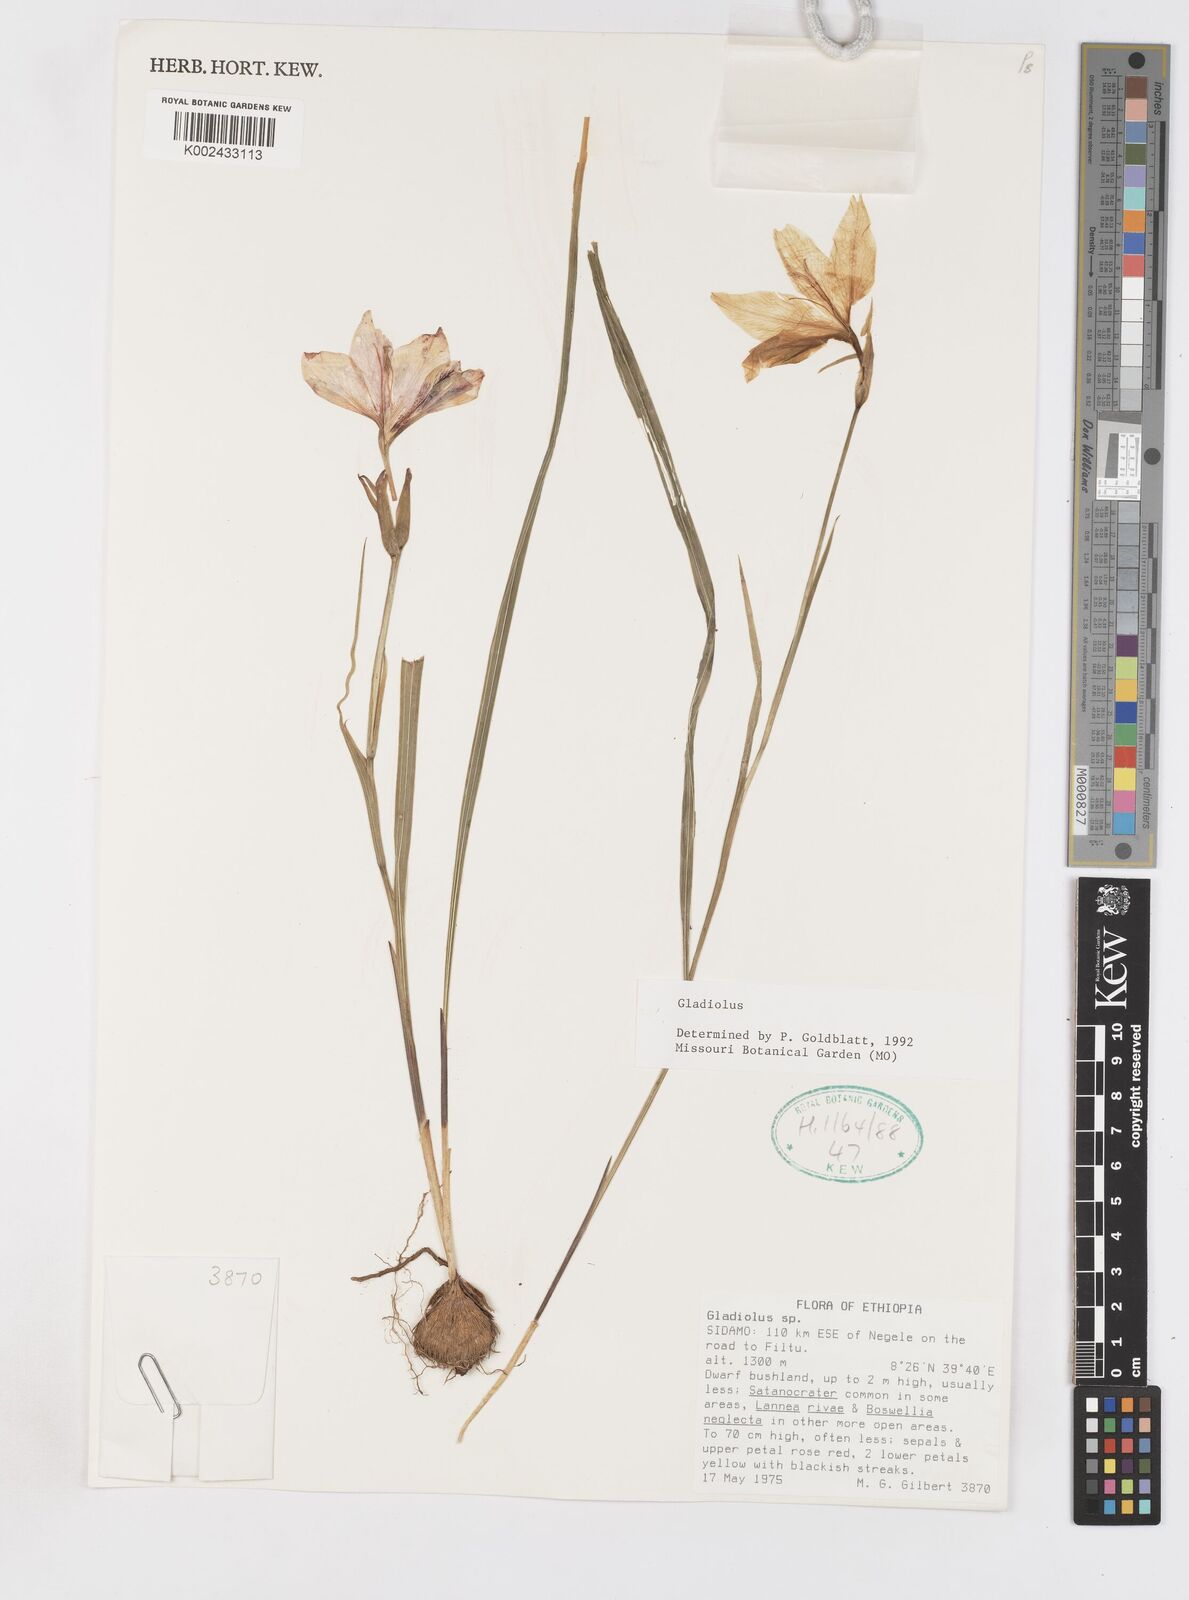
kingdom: Plantae
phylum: Tracheophyta
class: Liliopsida
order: Asparagales
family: Iridaceae
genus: Gladiolus
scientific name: Gladiolus
